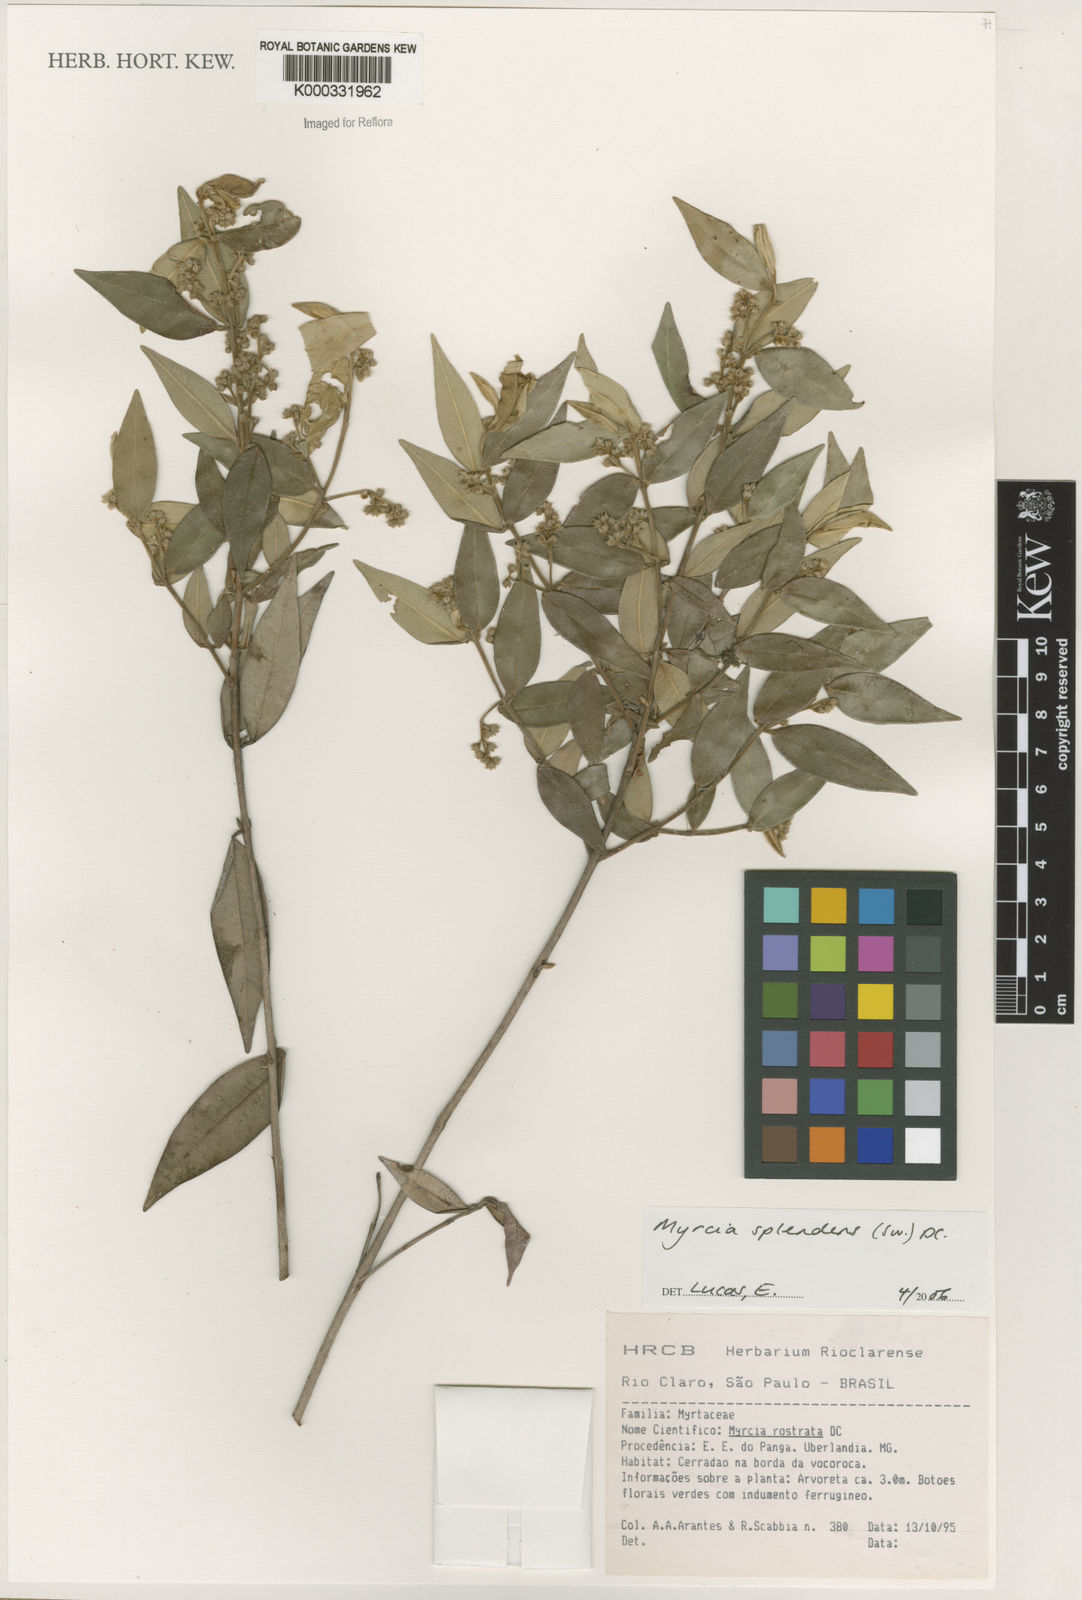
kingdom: Plantae
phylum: Tracheophyta
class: Magnoliopsida
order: Myrtales
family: Myrtaceae
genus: Myrcia
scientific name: Myrcia splendens
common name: Surinam cherry
